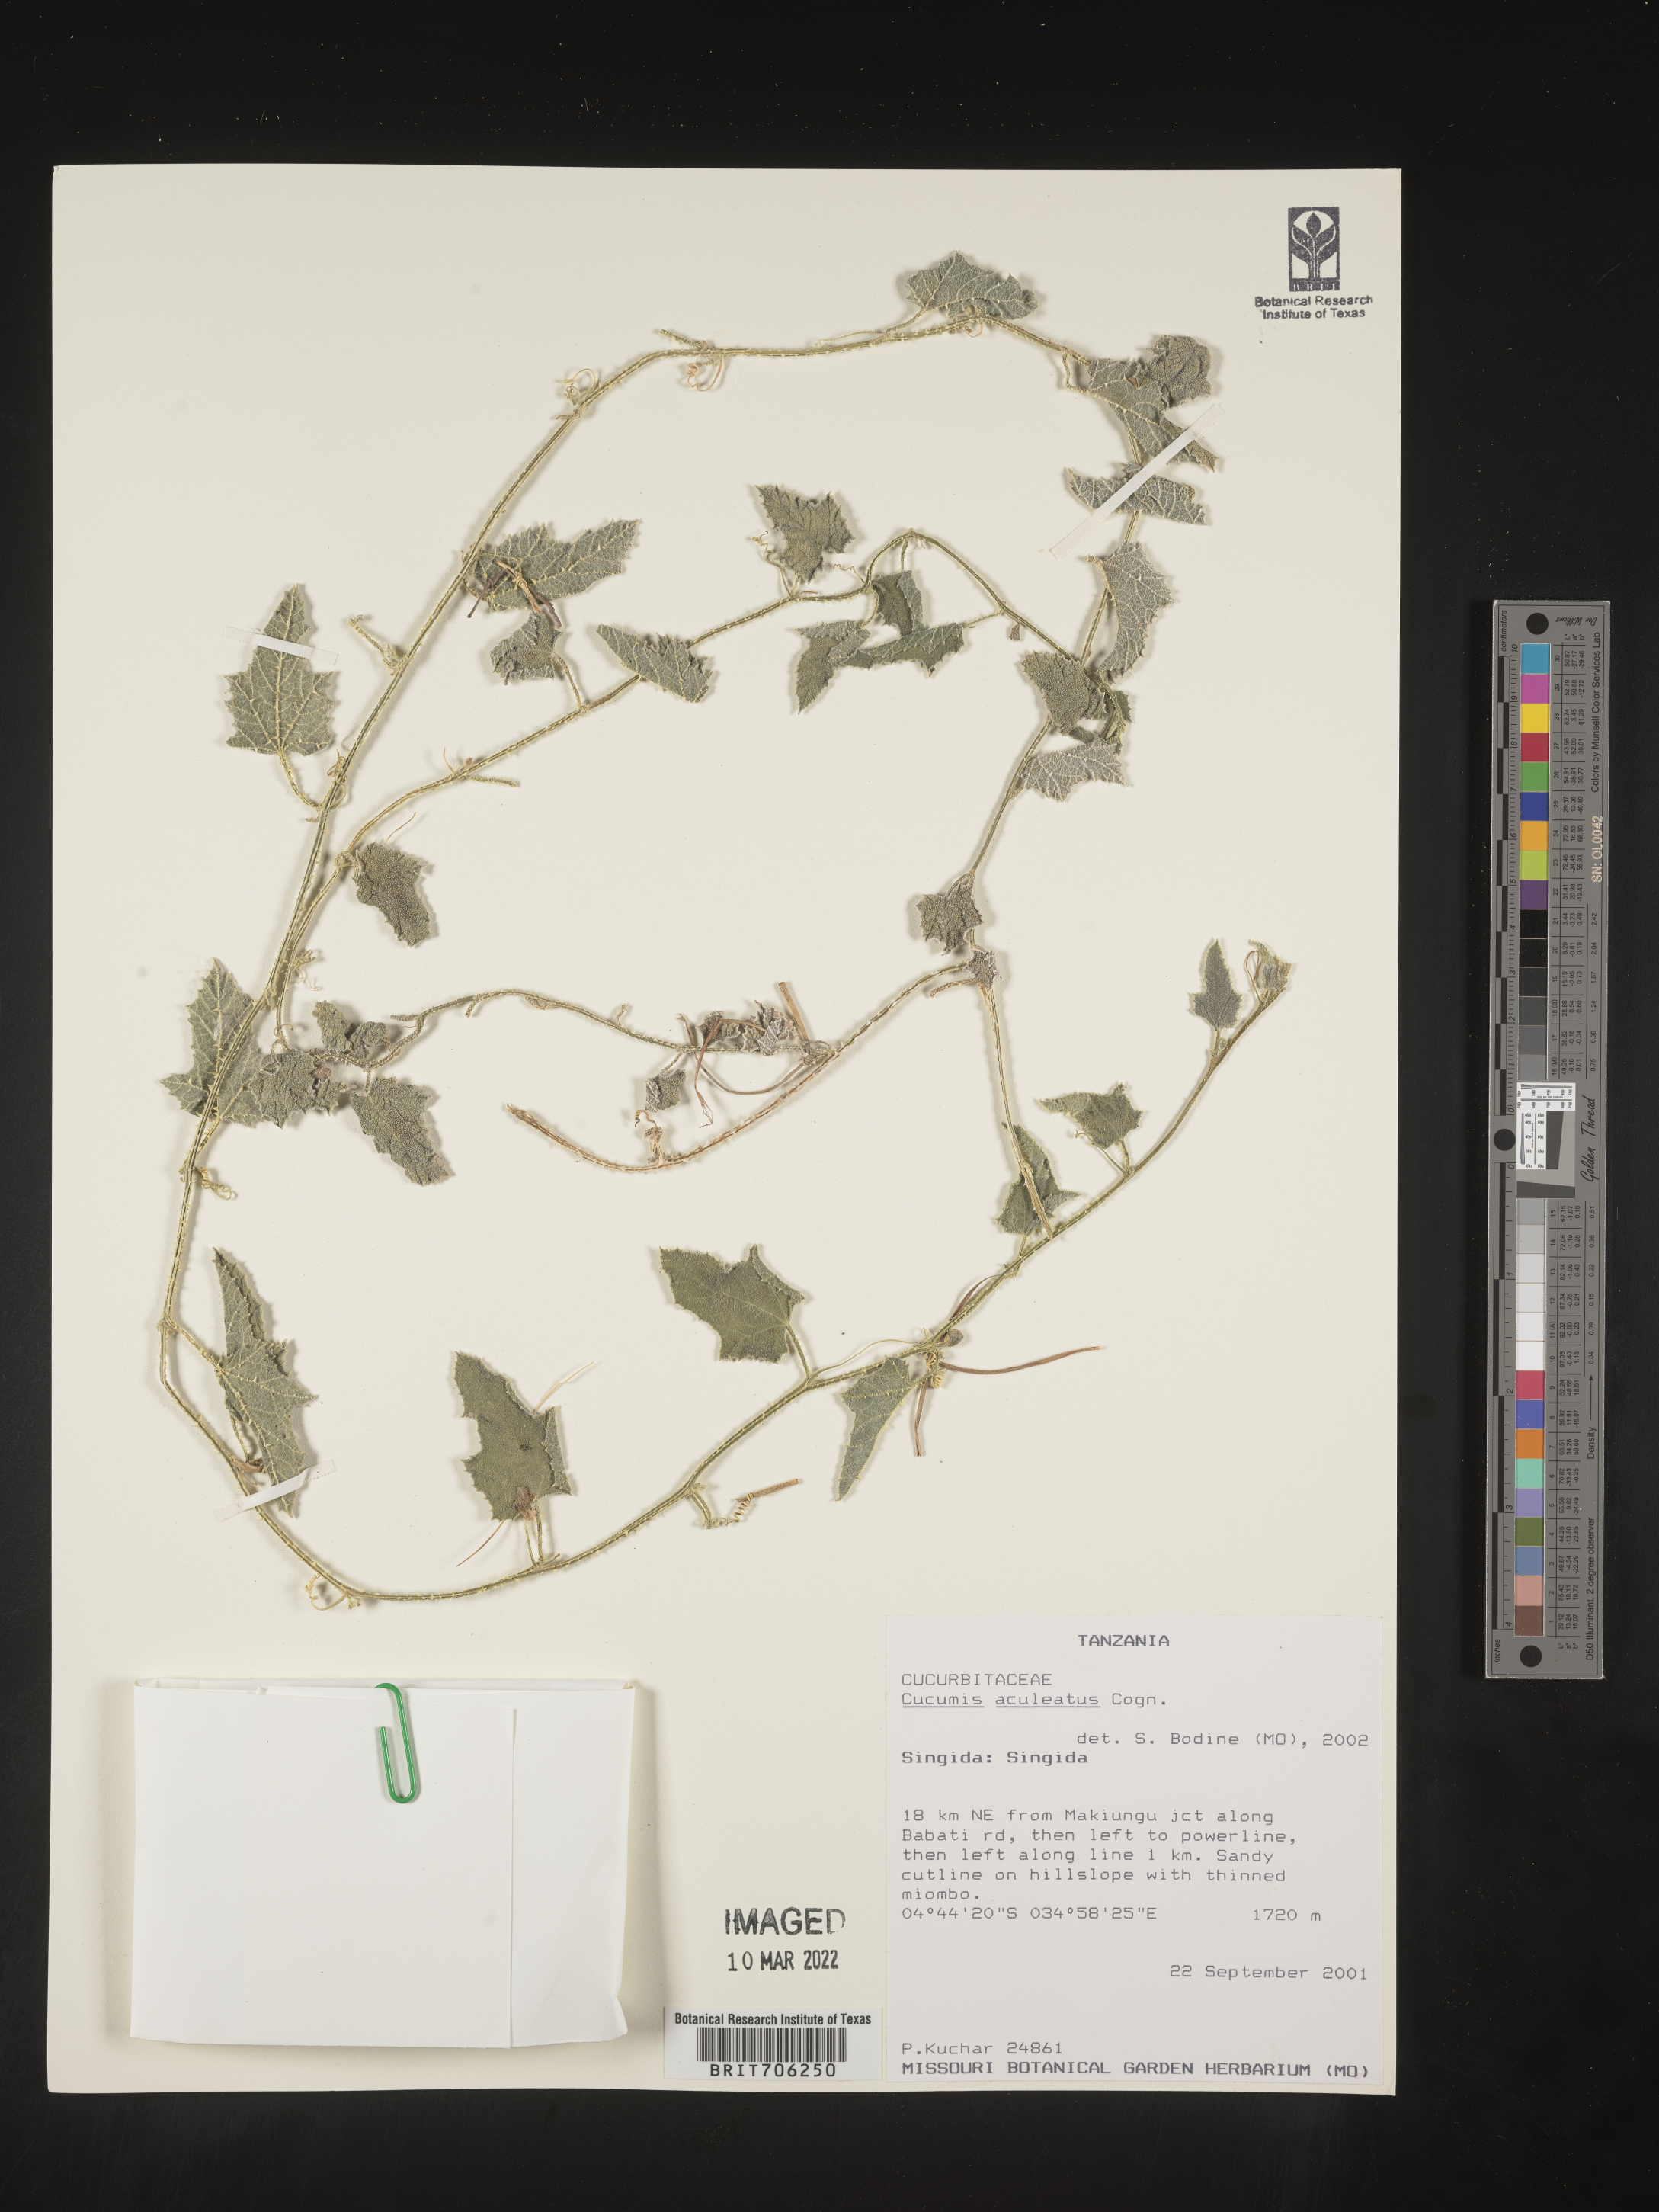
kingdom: Plantae
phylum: Tracheophyta
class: Magnoliopsida
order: Cucurbitales
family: Cucurbitaceae
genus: Cucumis
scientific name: Cucumis
